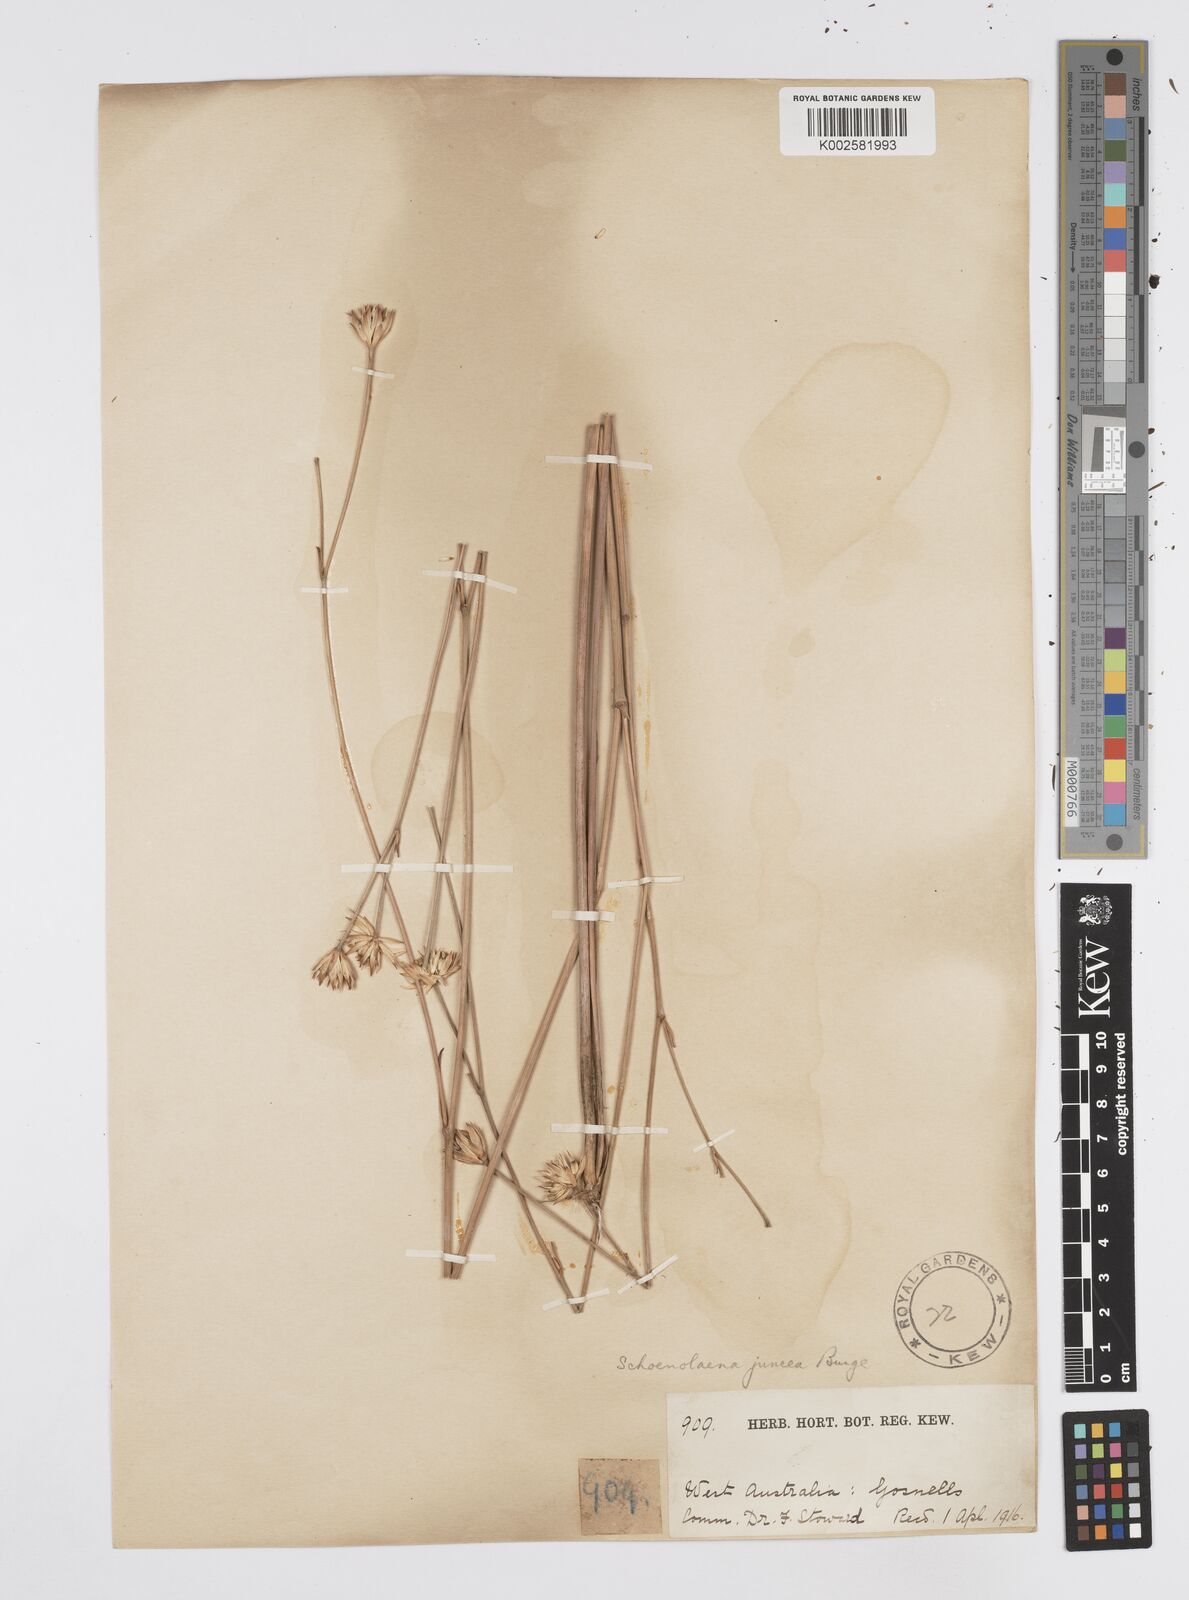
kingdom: Plantae
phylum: Tracheophyta
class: Magnoliopsida
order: Apiales
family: Apiaceae
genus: Schoenolaena
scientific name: Schoenolaena juncea
